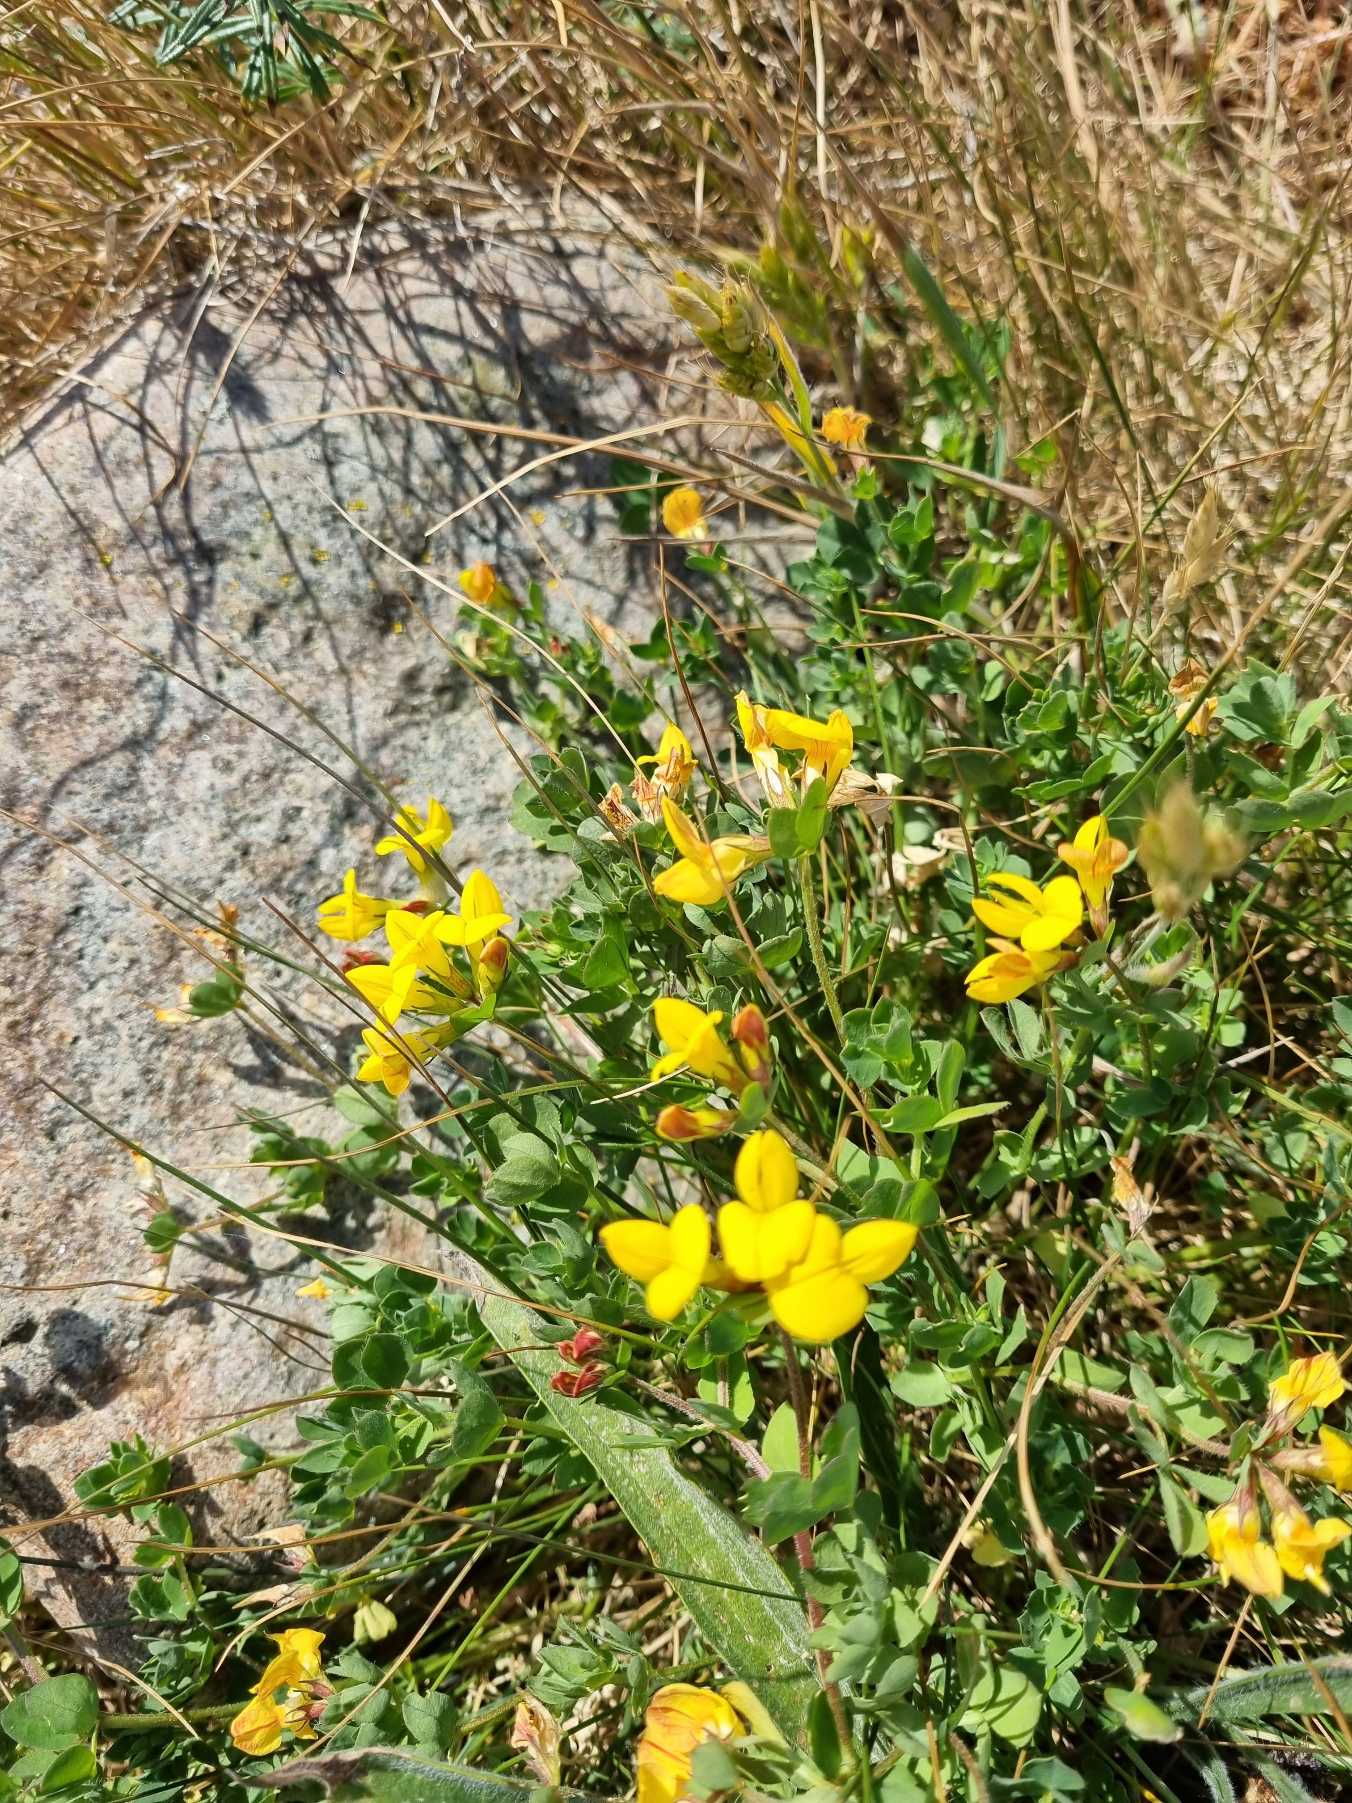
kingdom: Plantae
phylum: Tracheophyta
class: Magnoliopsida
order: Fabales
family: Fabaceae
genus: Lotus
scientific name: Lotus corniculatus
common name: Almindelig kællingetand
